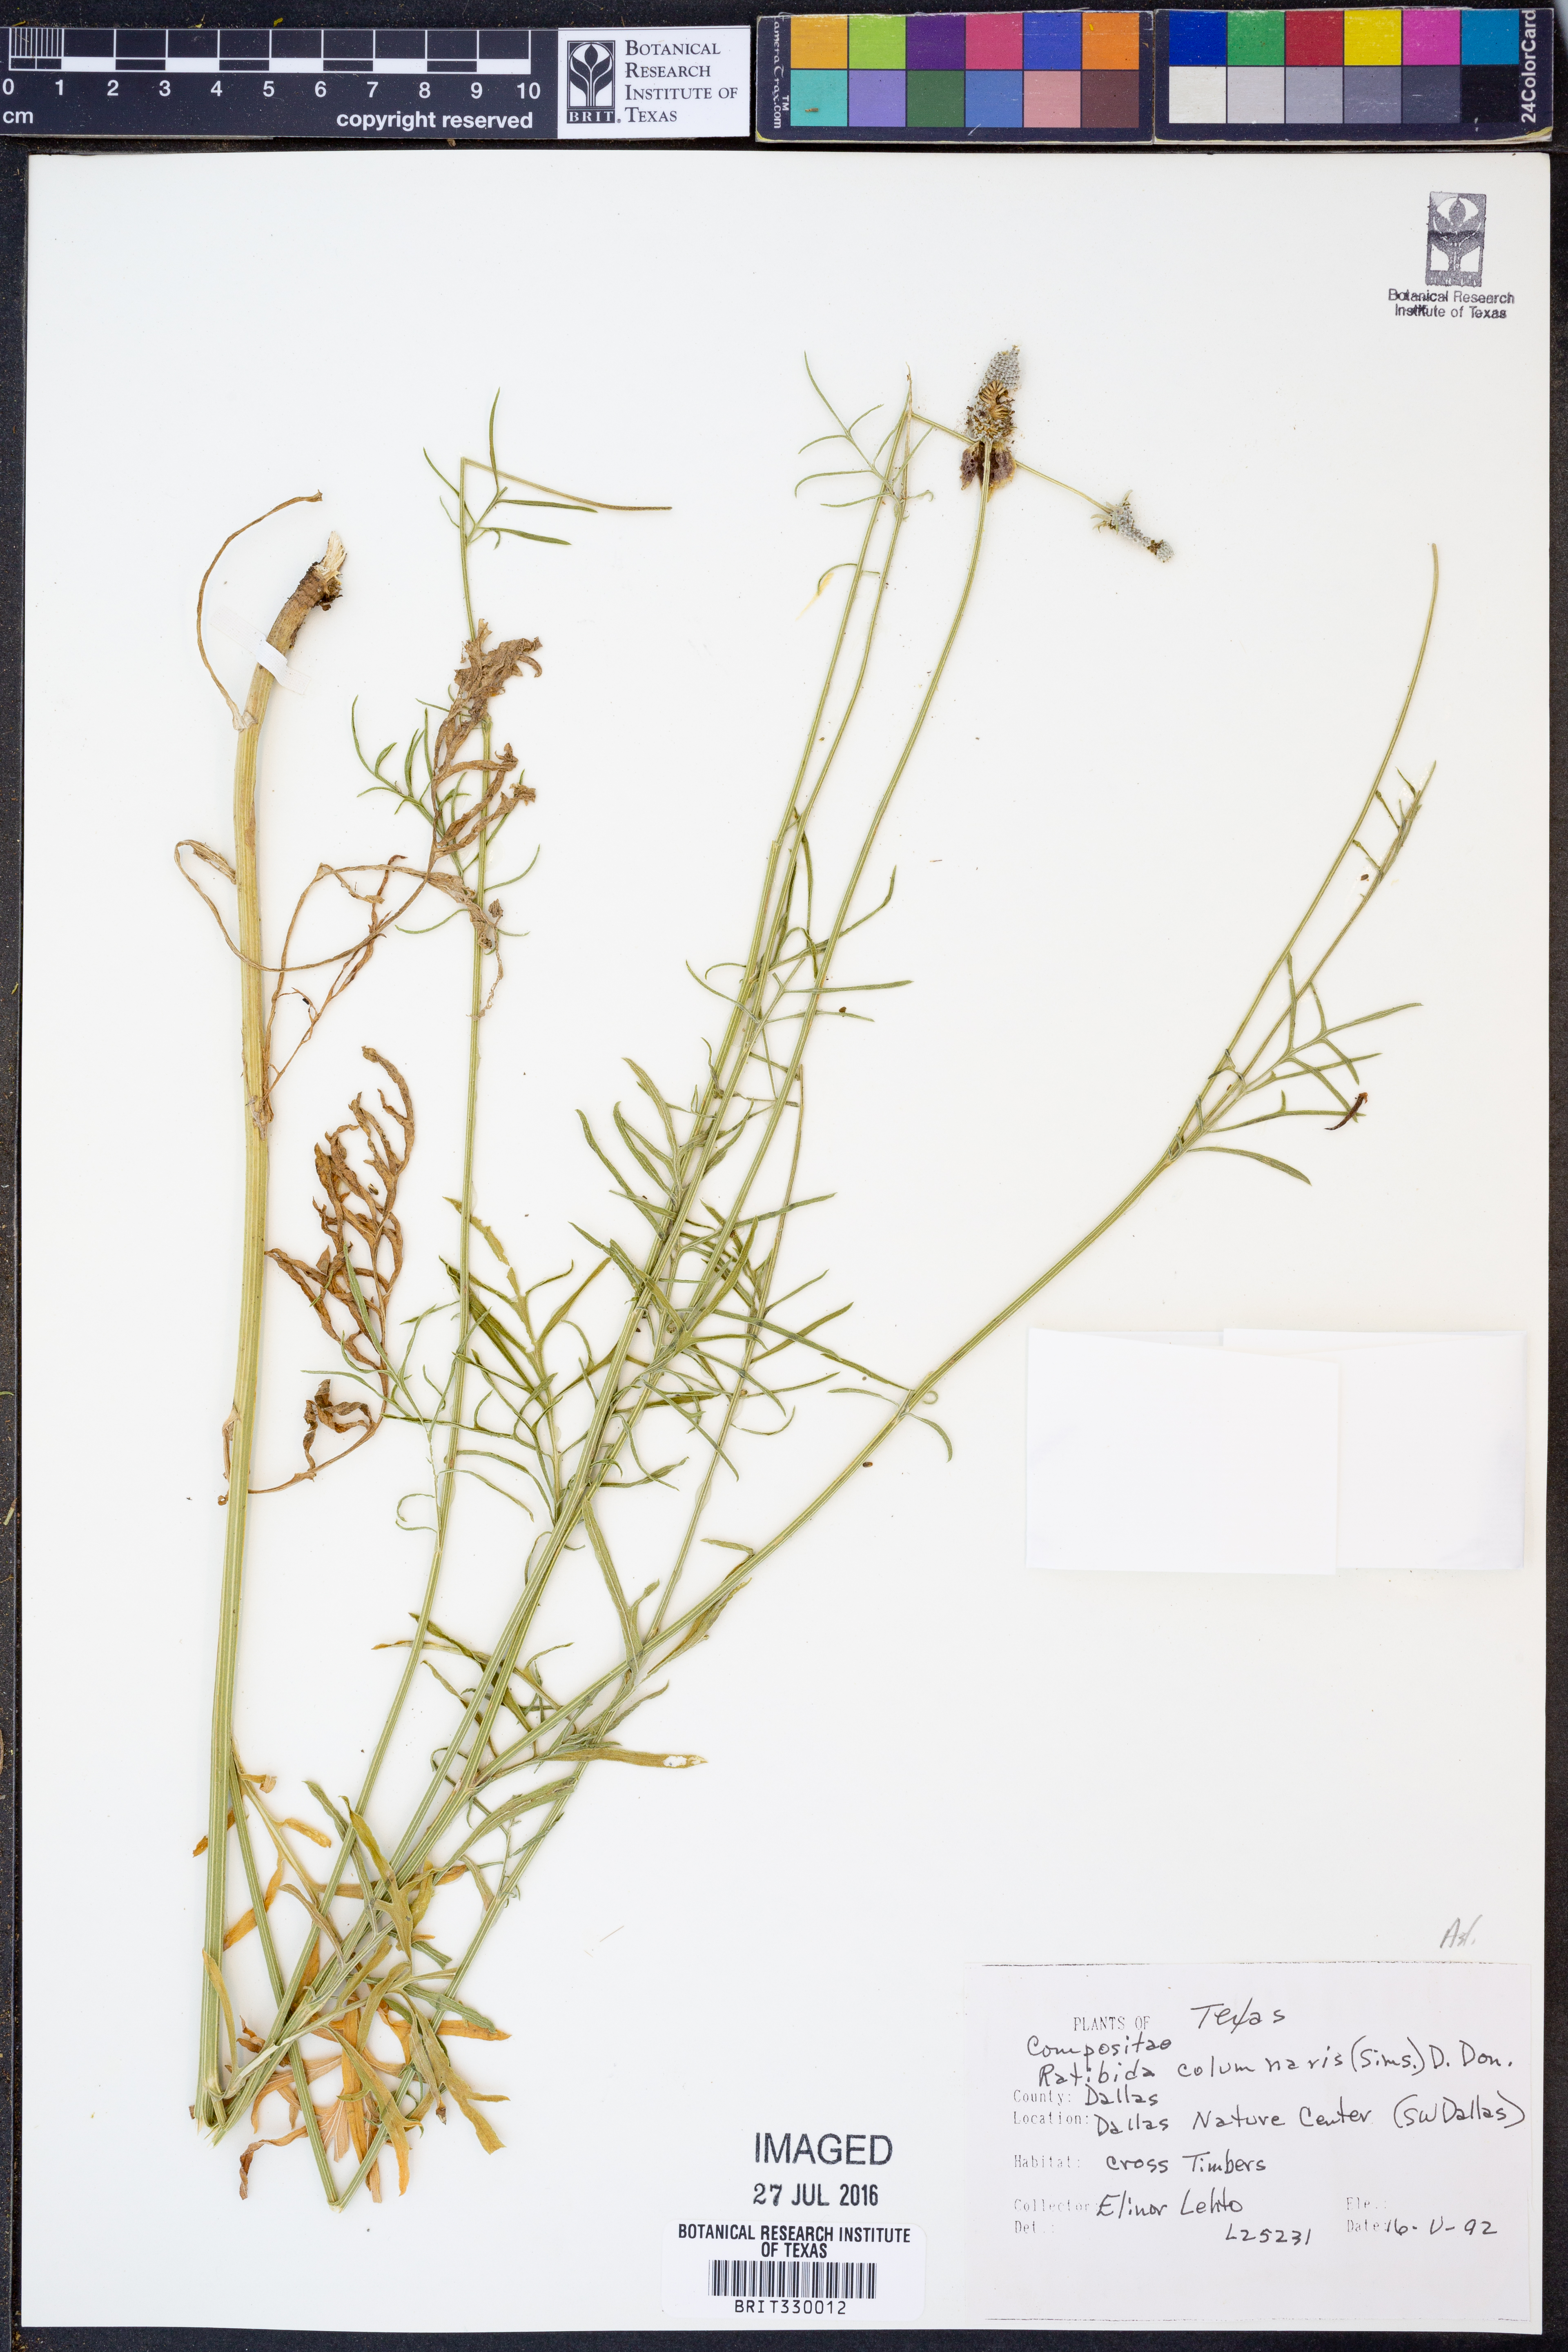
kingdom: Plantae
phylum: Tracheophyta
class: Magnoliopsida
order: Asterales
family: Asteraceae
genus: Ratibida
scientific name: Ratibida columnifera
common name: Prairie coneflower
